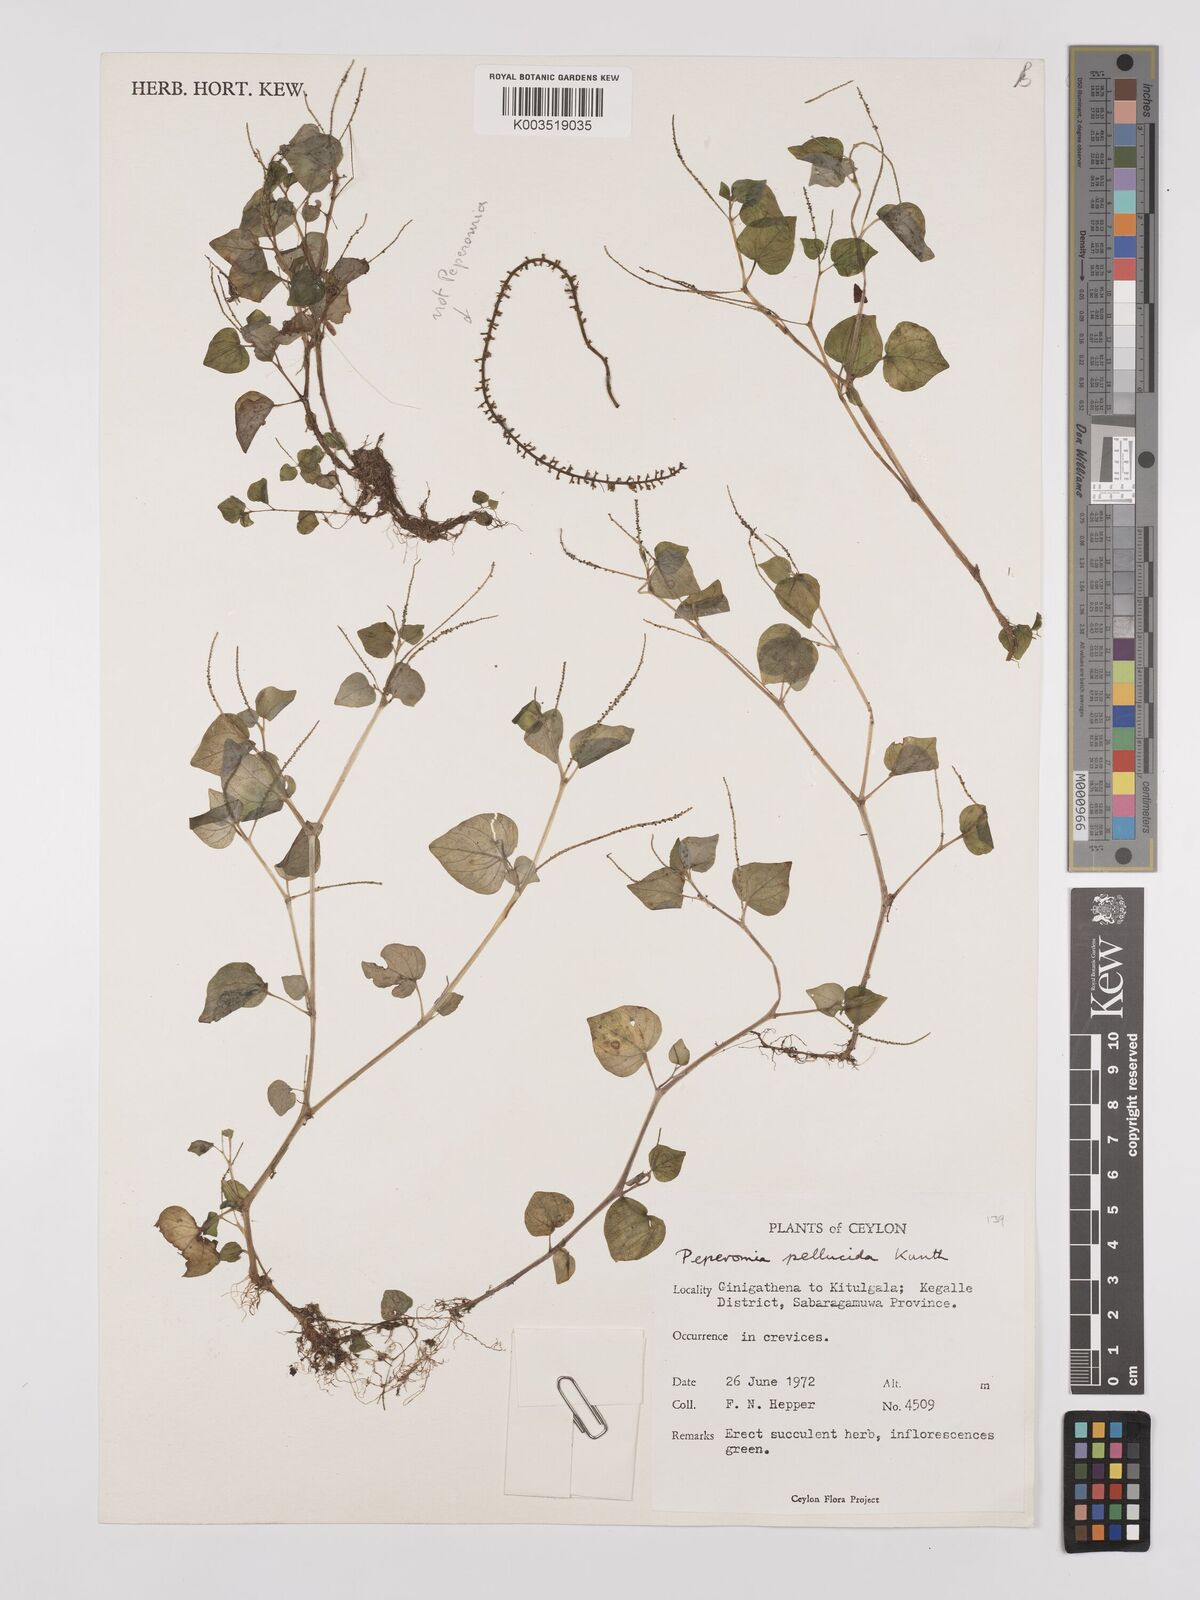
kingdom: Plantae
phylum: Tracheophyta
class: Magnoliopsida
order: Piperales
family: Piperaceae
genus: Peperomia
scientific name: Peperomia pellucida
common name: Man to man
